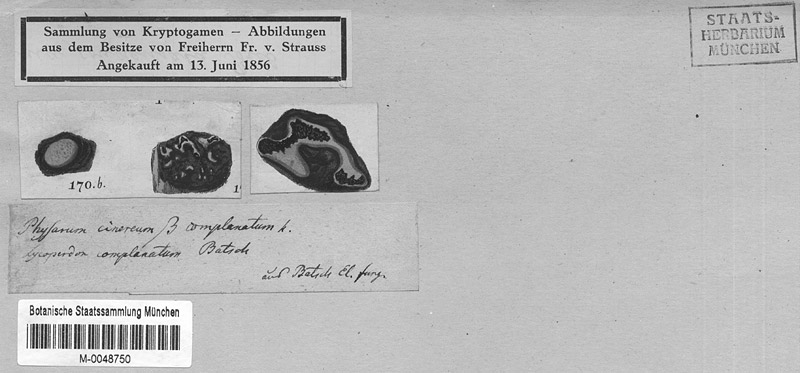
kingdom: Protozoa
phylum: Mycetozoa
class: Myxomycetes
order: Physarales
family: Didymiaceae
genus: Didymium
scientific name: Didymium serpula
